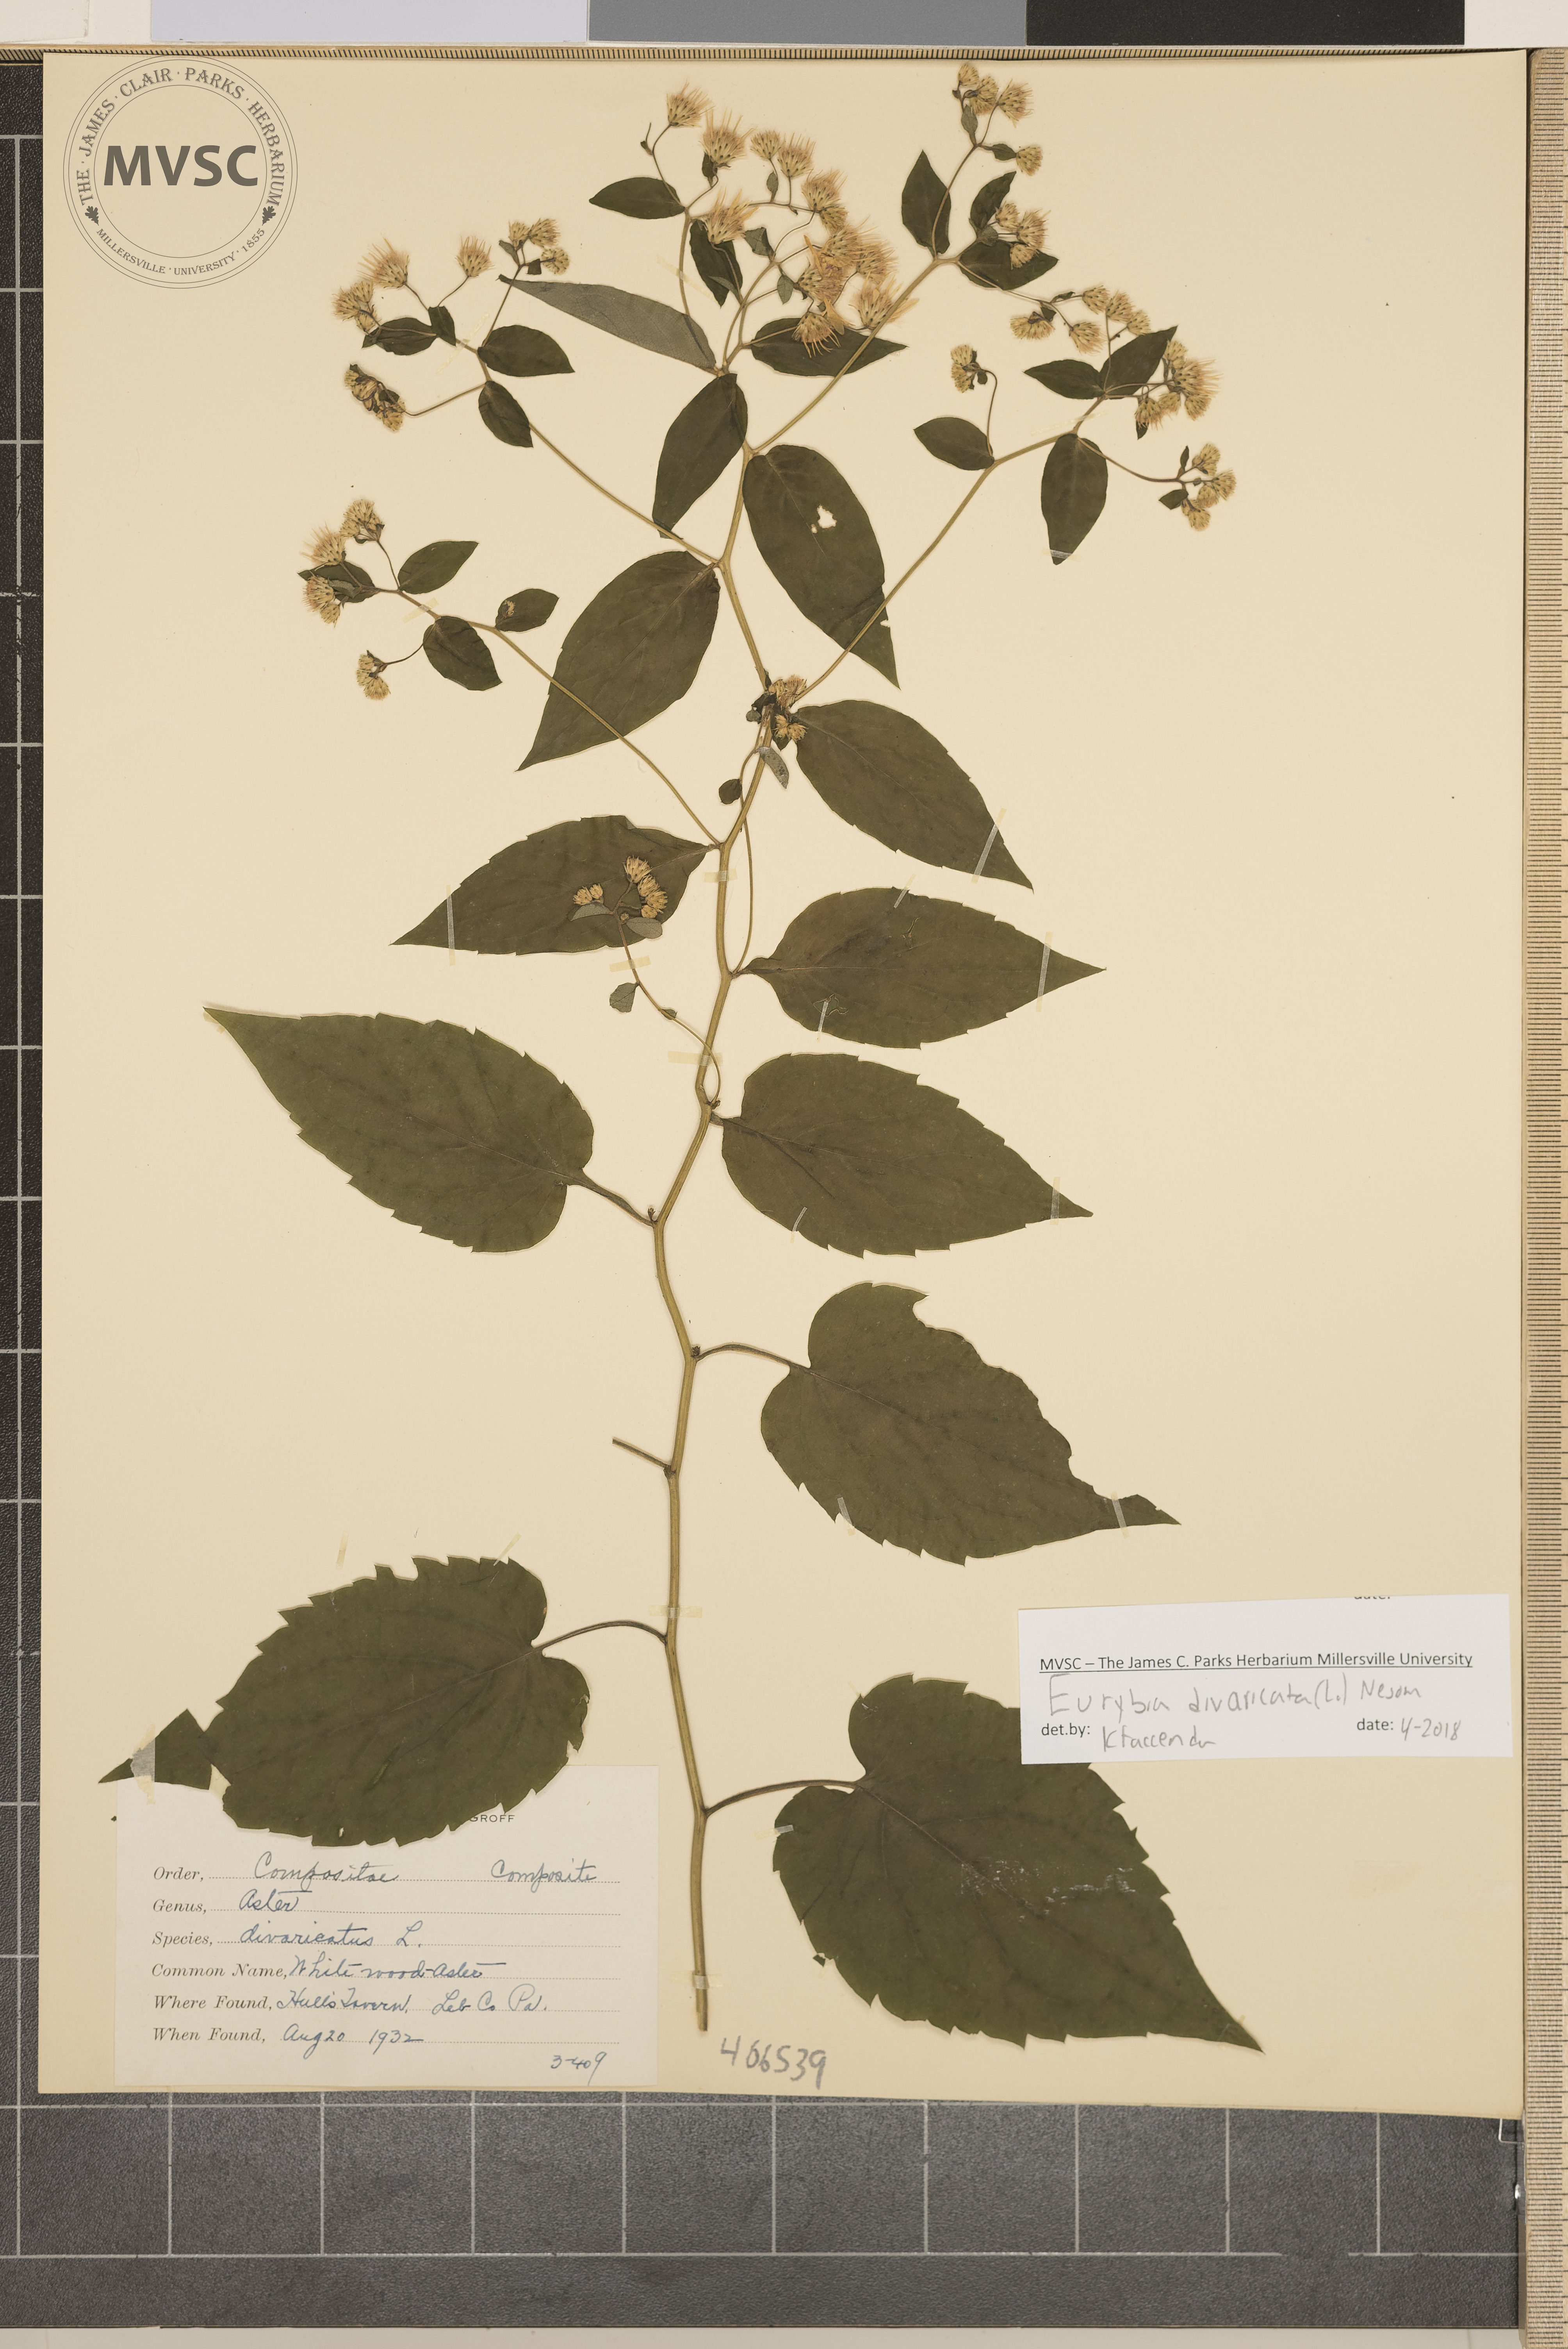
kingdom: Plantae
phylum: Tracheophyta
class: Magnoliopsida
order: Asterales
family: Asteraceae
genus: Eurybia
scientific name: Eurybia divaricata
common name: White Wood Aster
